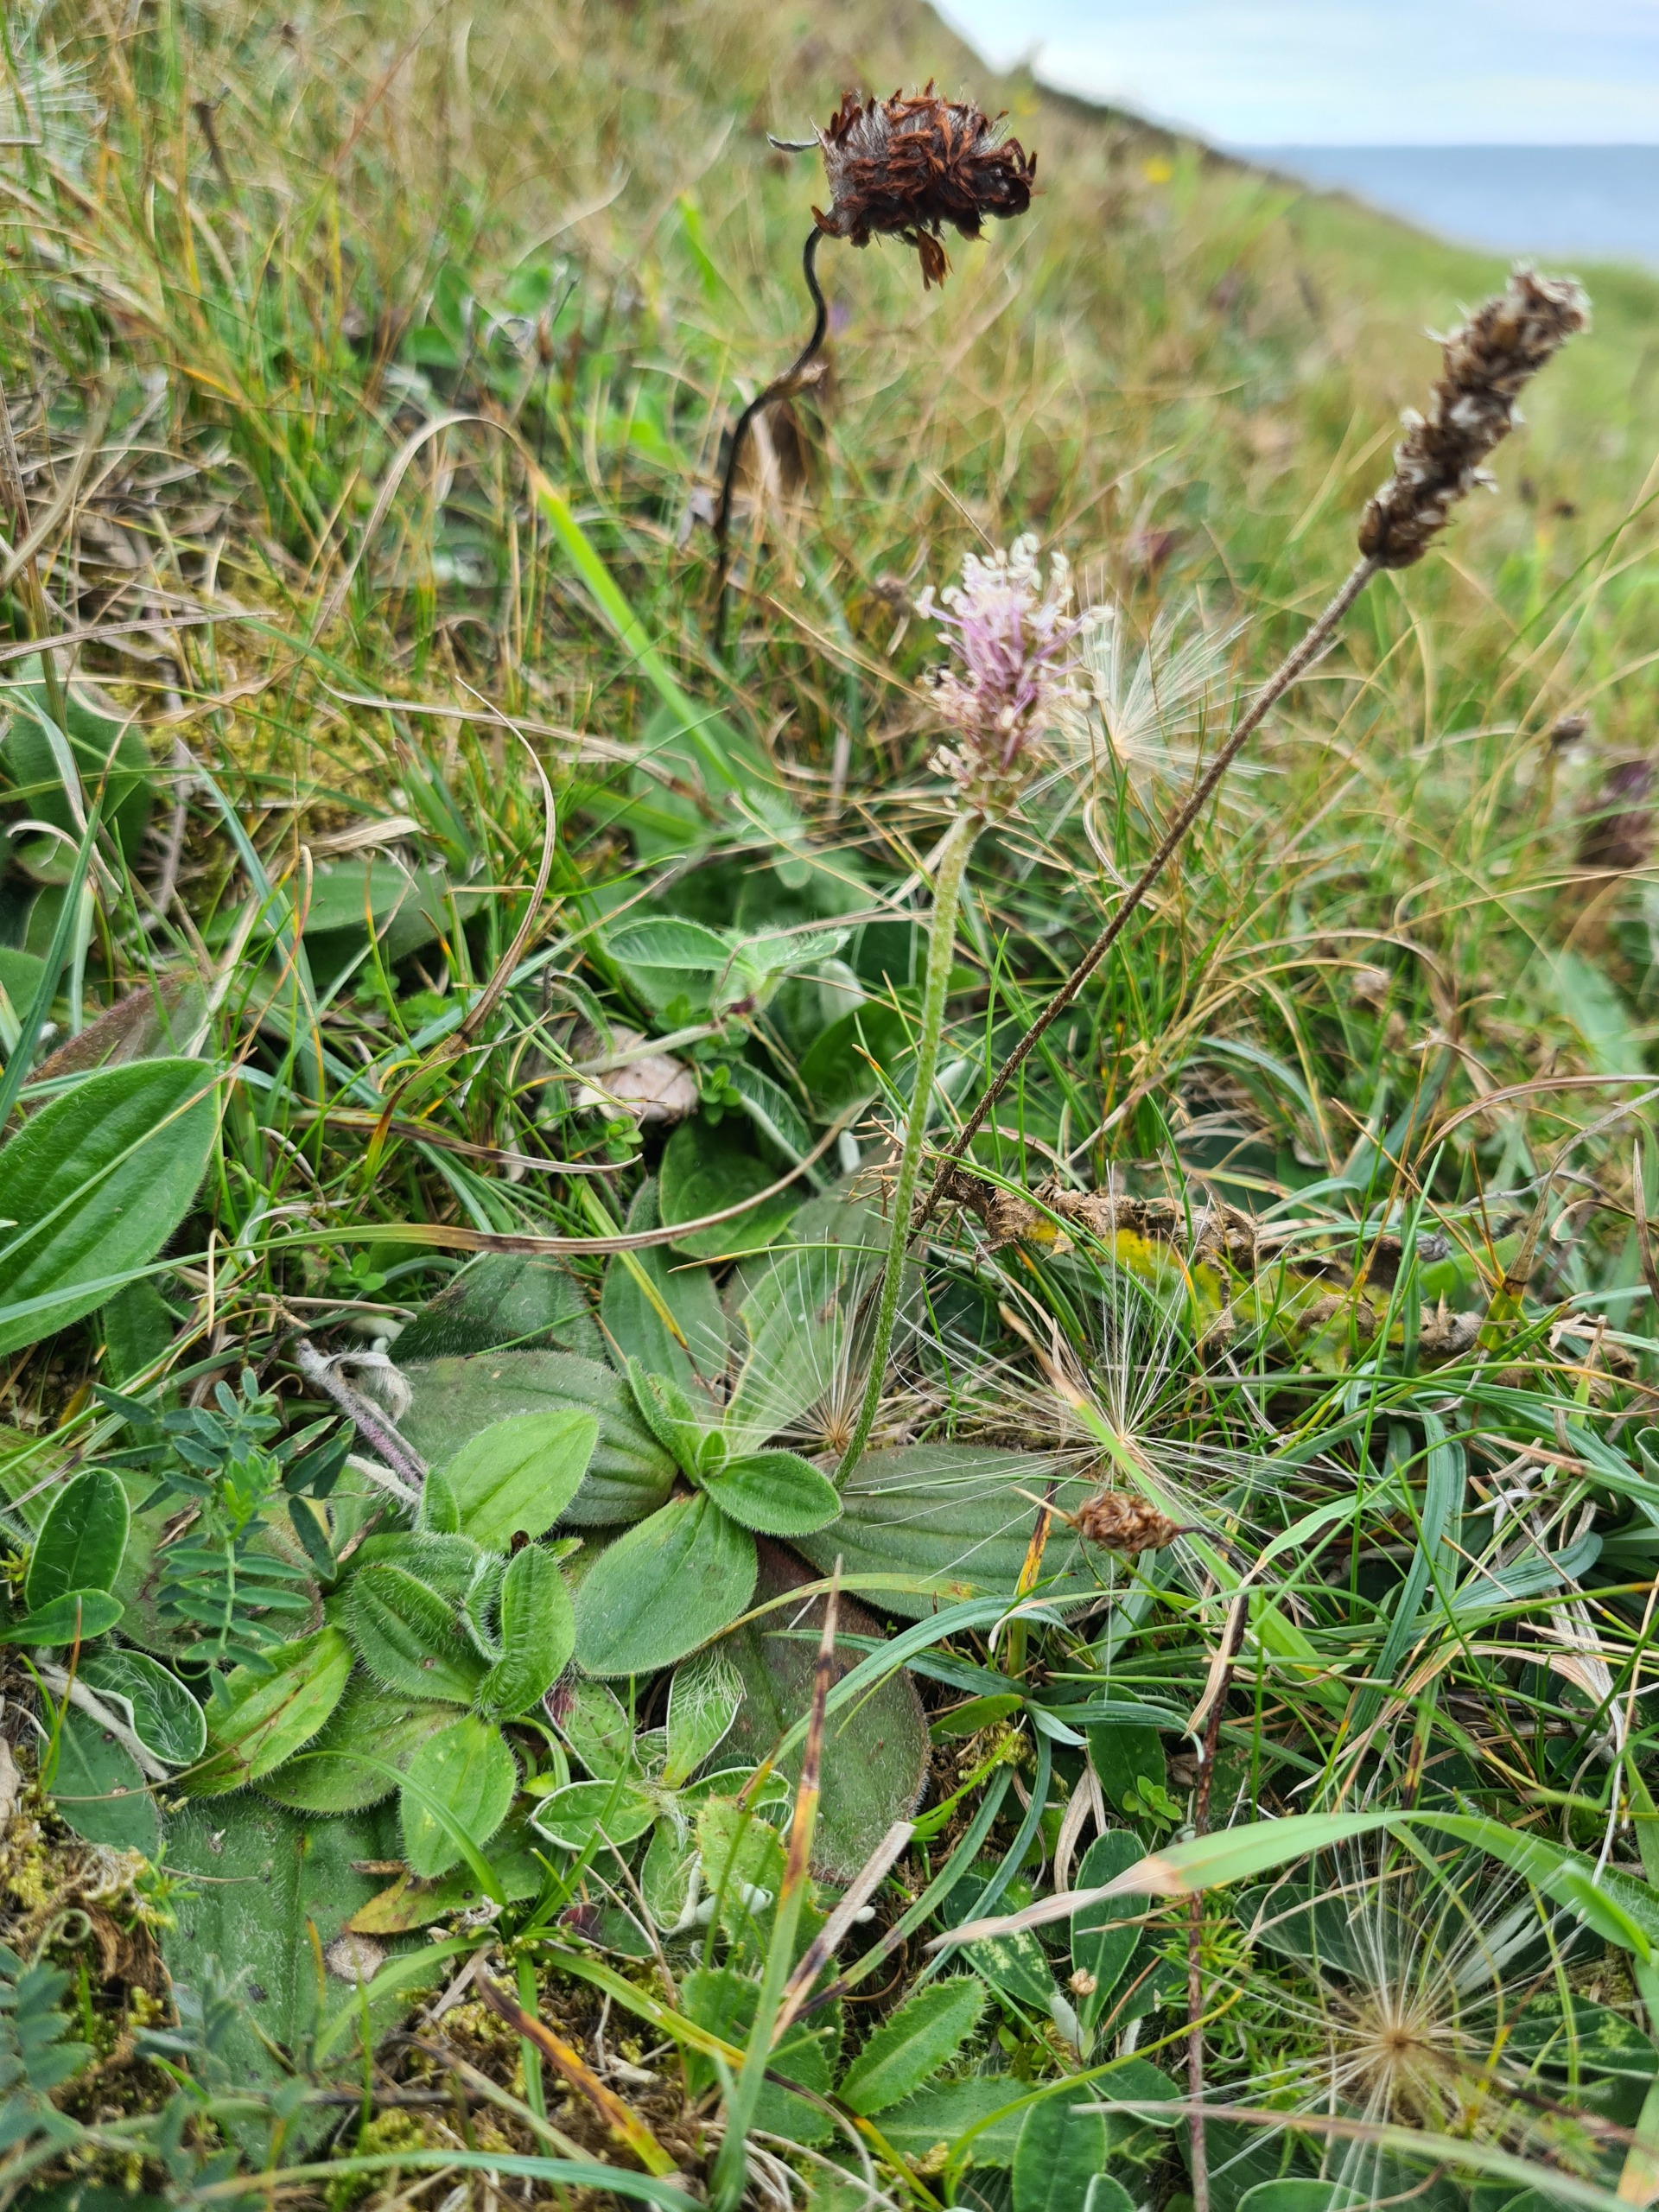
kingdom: Plantae
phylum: Tracheophyta
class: Magnoliopsida
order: Lamiales
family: Plantaginaceae
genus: Plantago
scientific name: Plantago media
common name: Dunet vejbred
